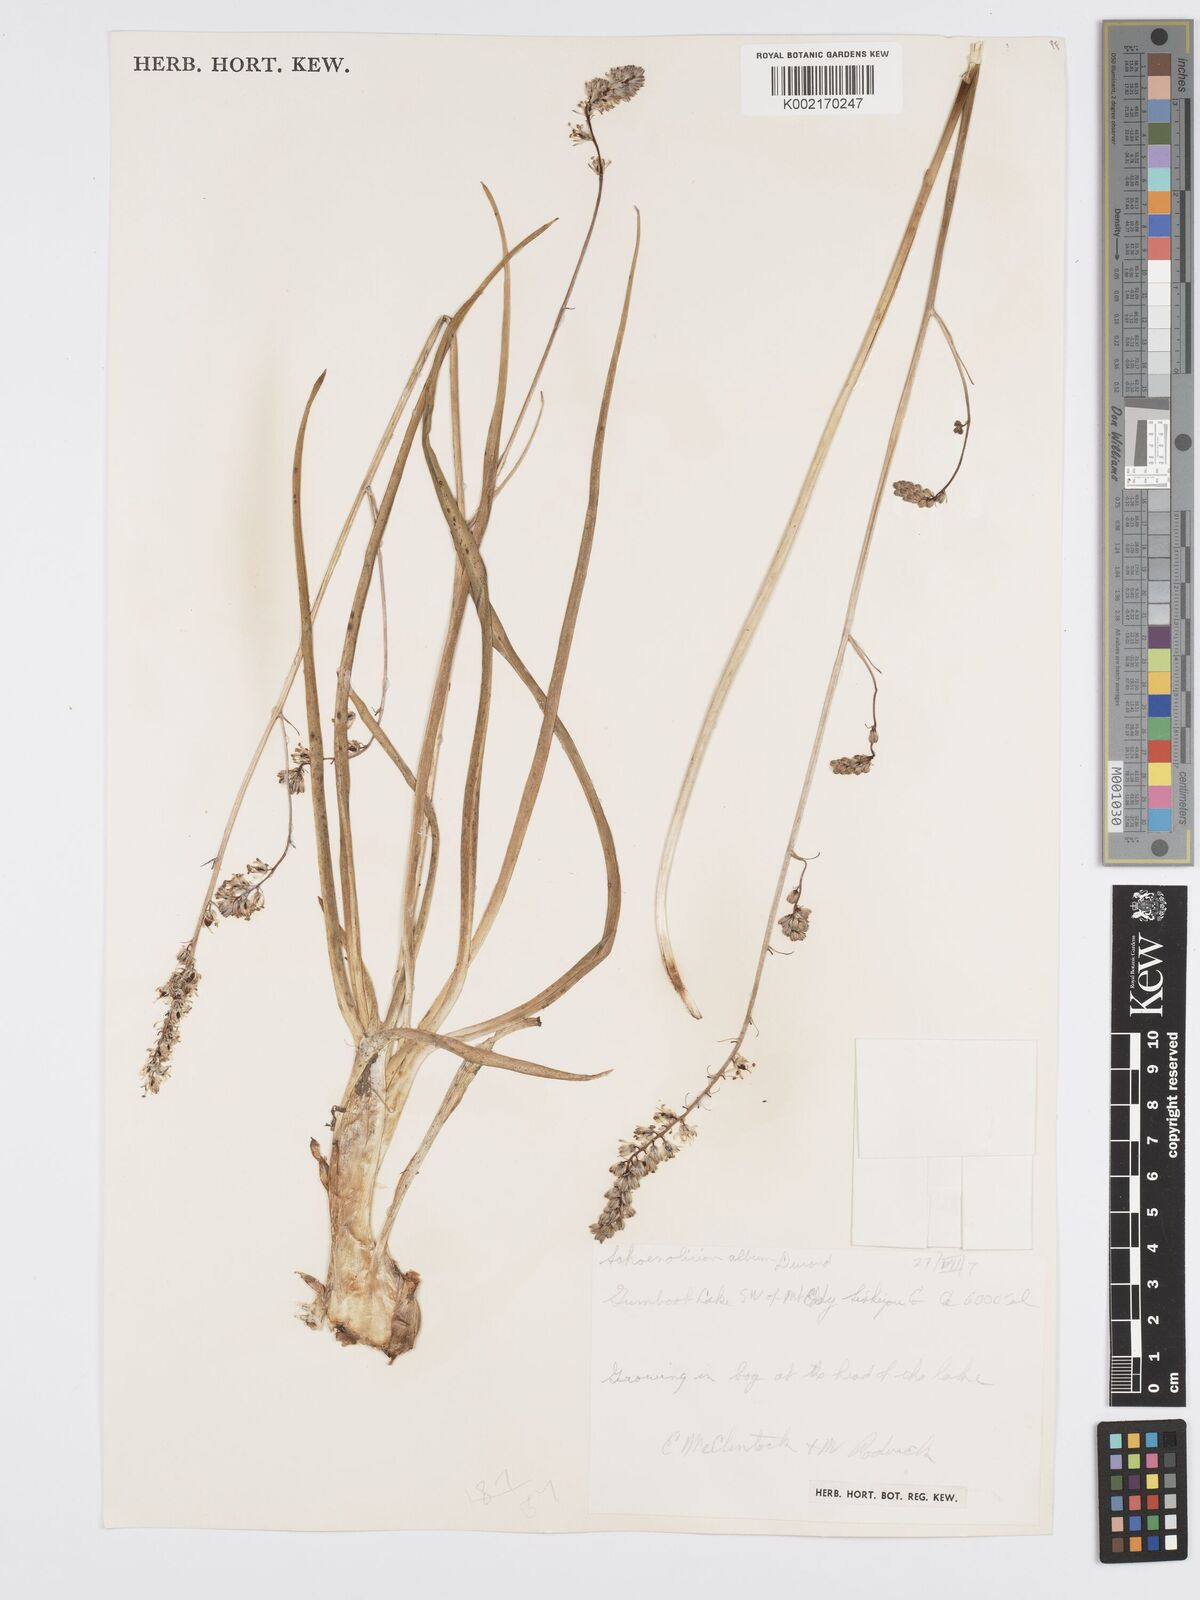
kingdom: Plantae
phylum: Tracheophyta
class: Liliopsida
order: Asparagales
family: Asparagaceae
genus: Hastingsia
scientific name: Hastingsia alba
